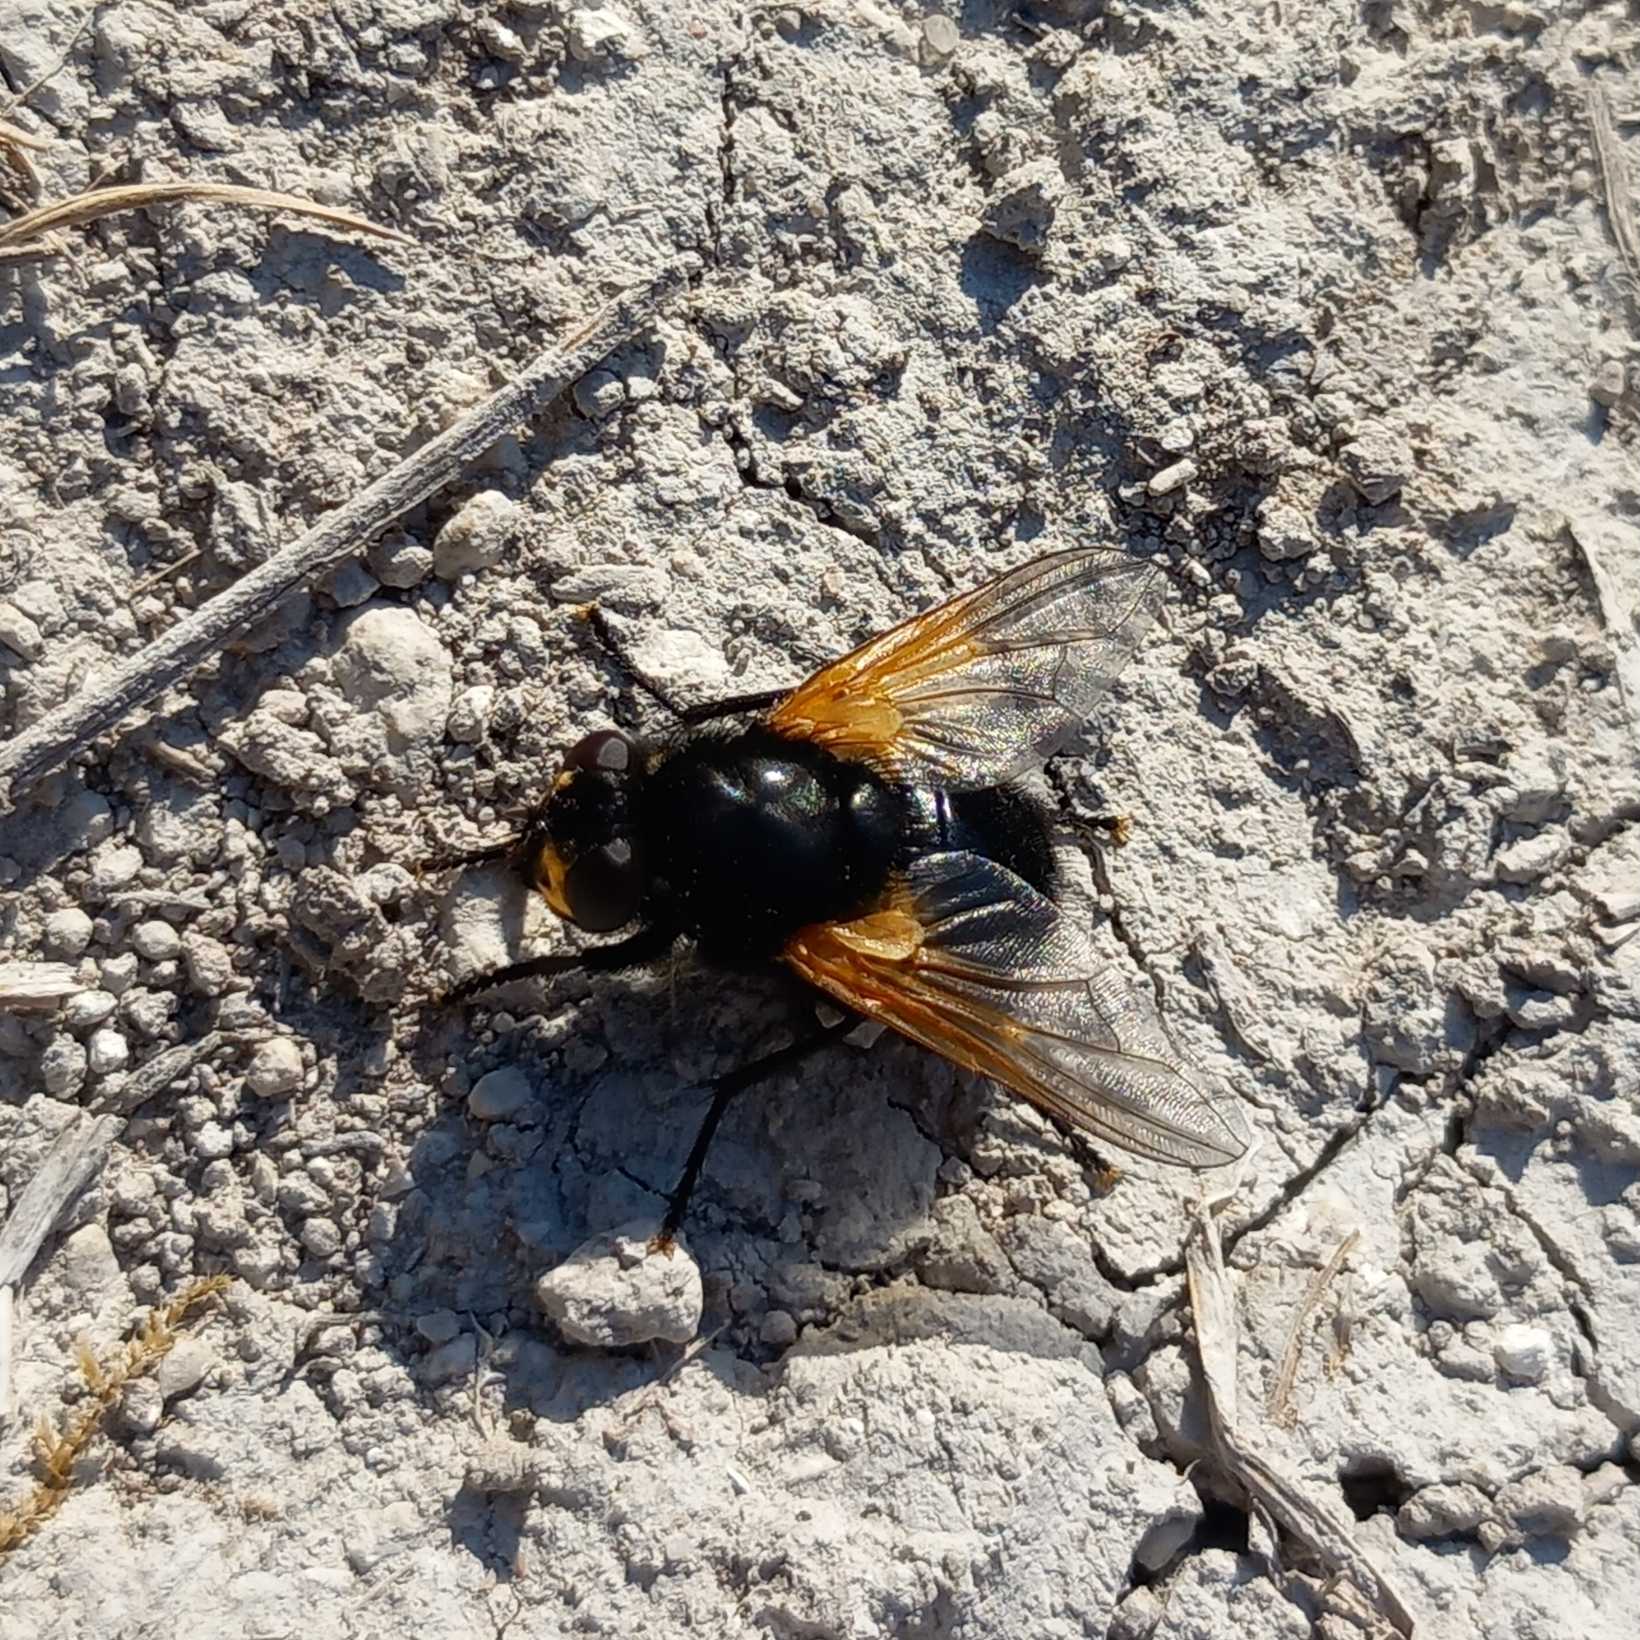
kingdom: Animalia
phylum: Arthropoda
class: Insecta
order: Diptera
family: Muscidae
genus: Mesembrina
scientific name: Mesembrina meridiana
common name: Gulvinget flue
